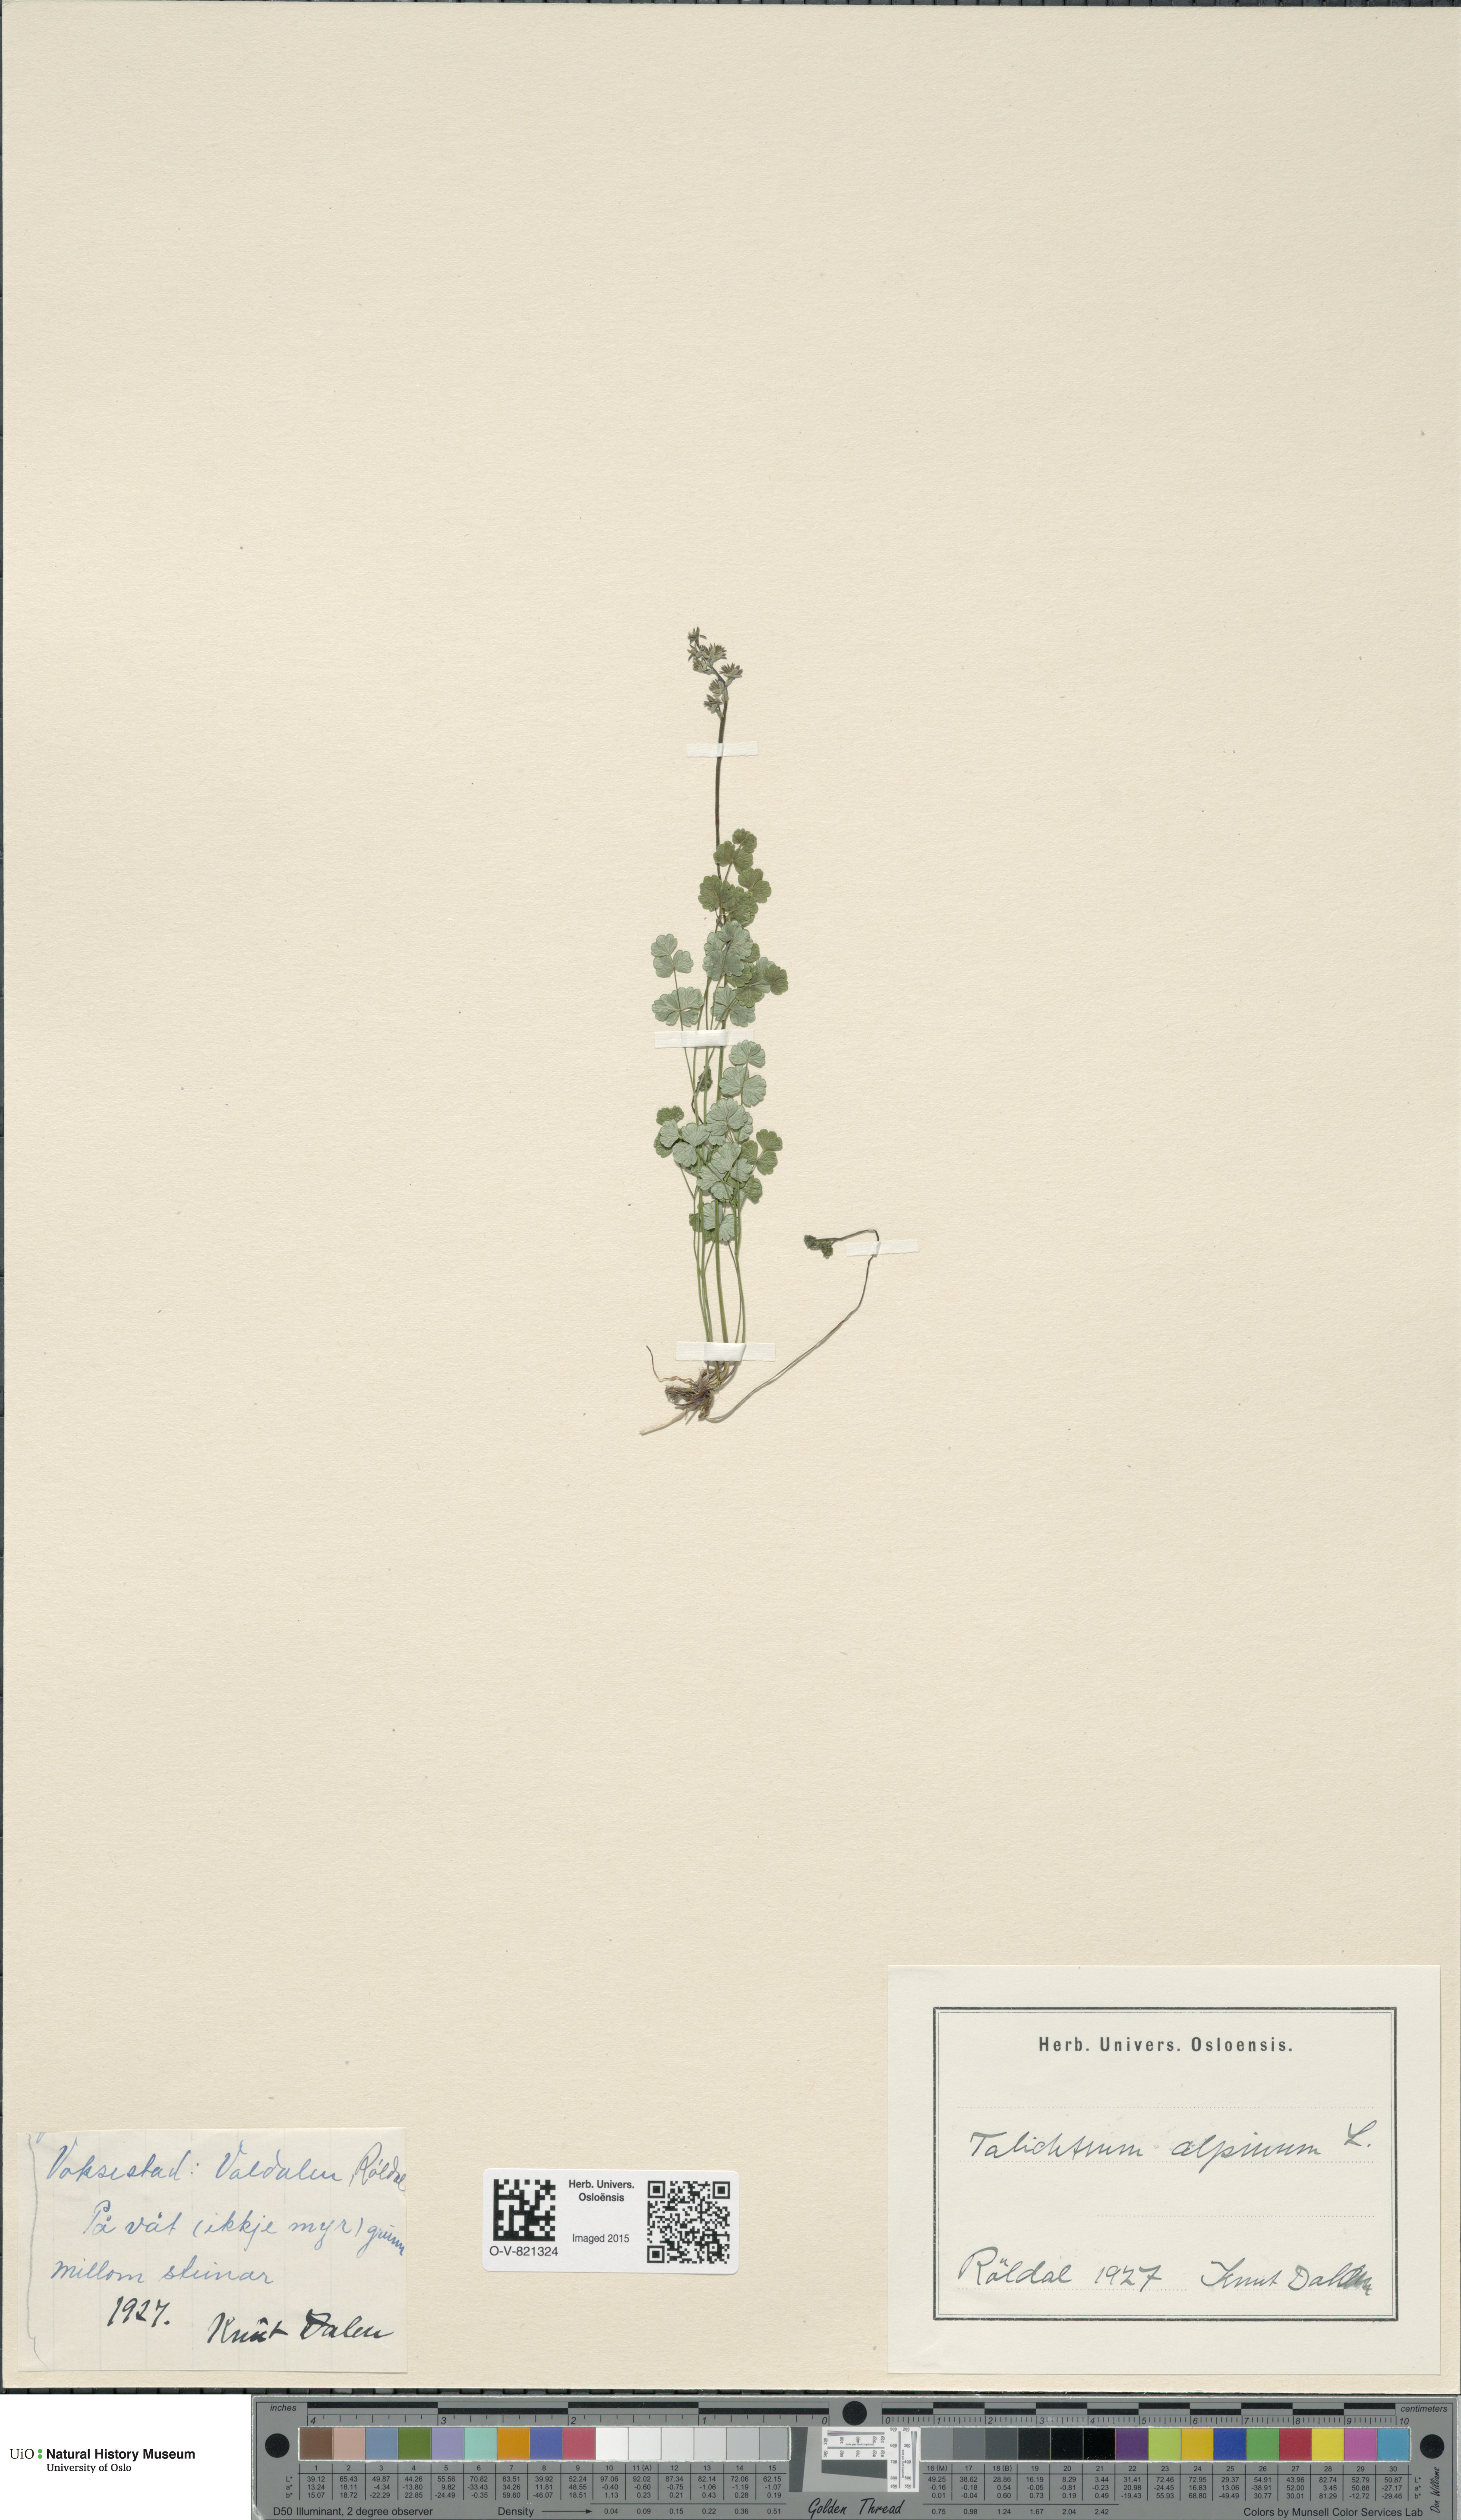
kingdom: Plantae
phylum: Tracheophyta
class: Magnoliopsida
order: Ranunculales
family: Ranunculaceae
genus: Thalictrum
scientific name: Thalictrum alpinum
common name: Alpine meadow-rue
